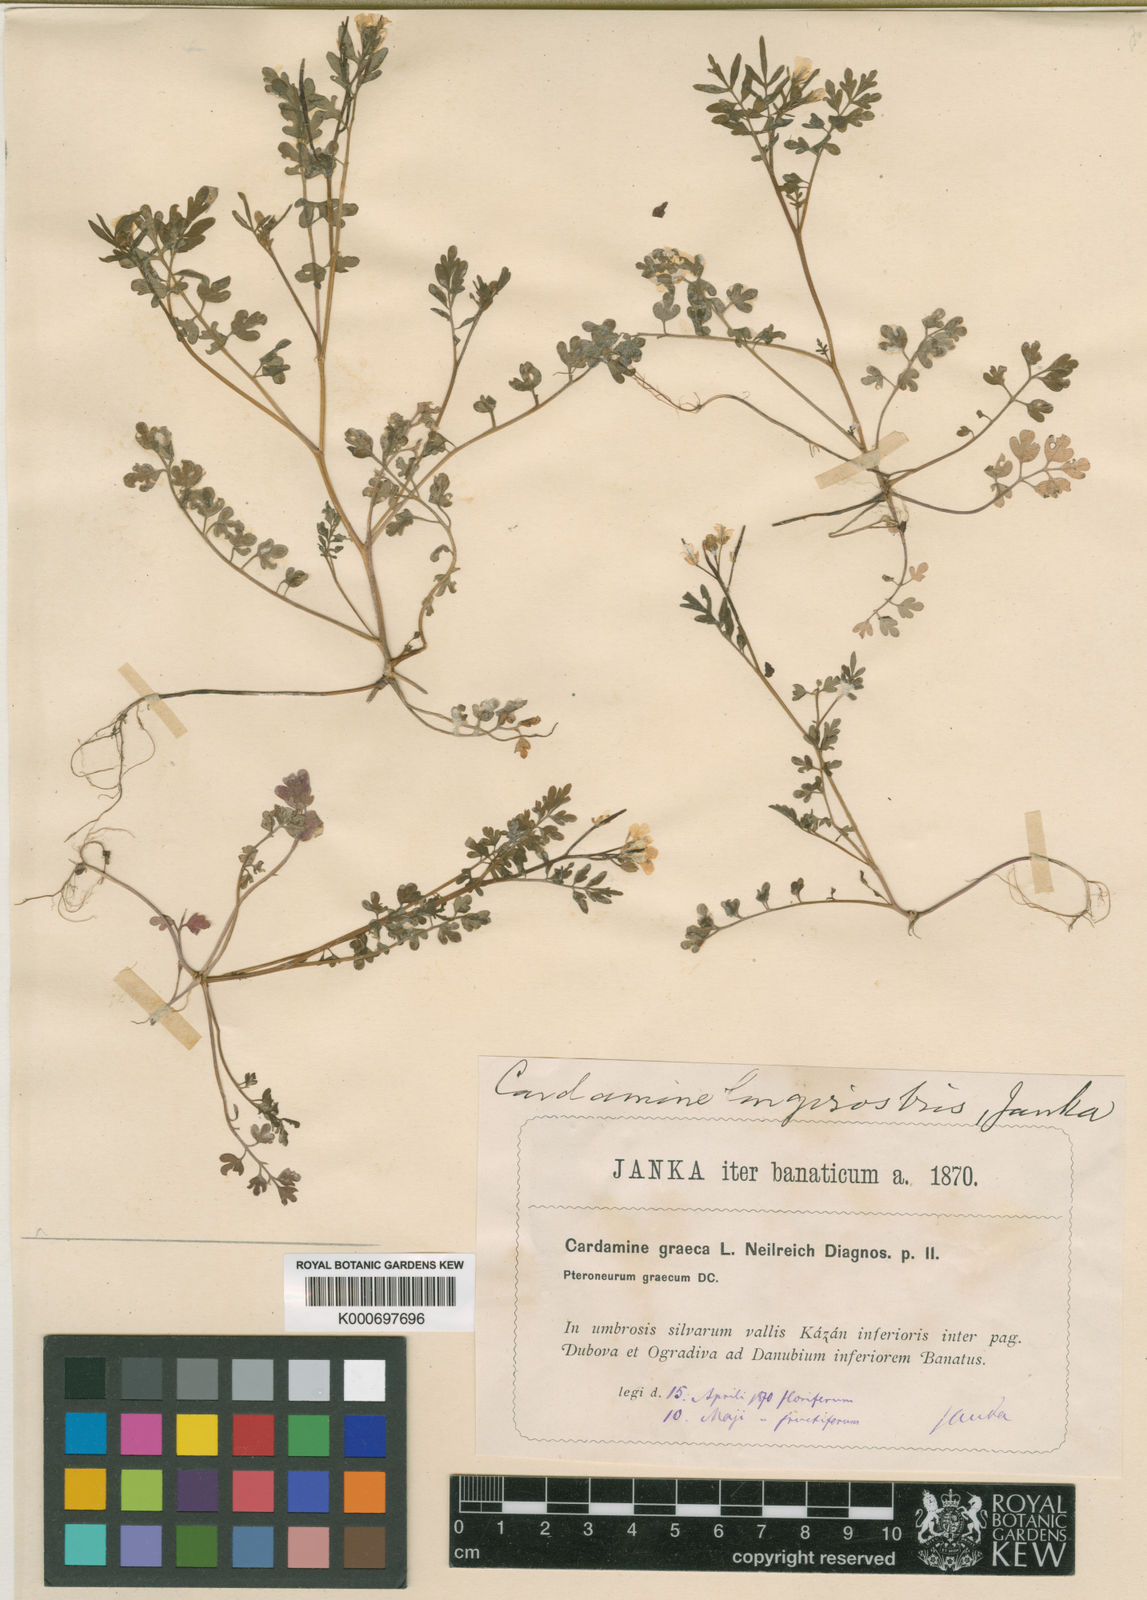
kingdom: Plantae
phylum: Tracheophyta
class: Magnoliopsida
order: Brassicales
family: Brassicaceae
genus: Cardamine
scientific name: Cardamine graeca
